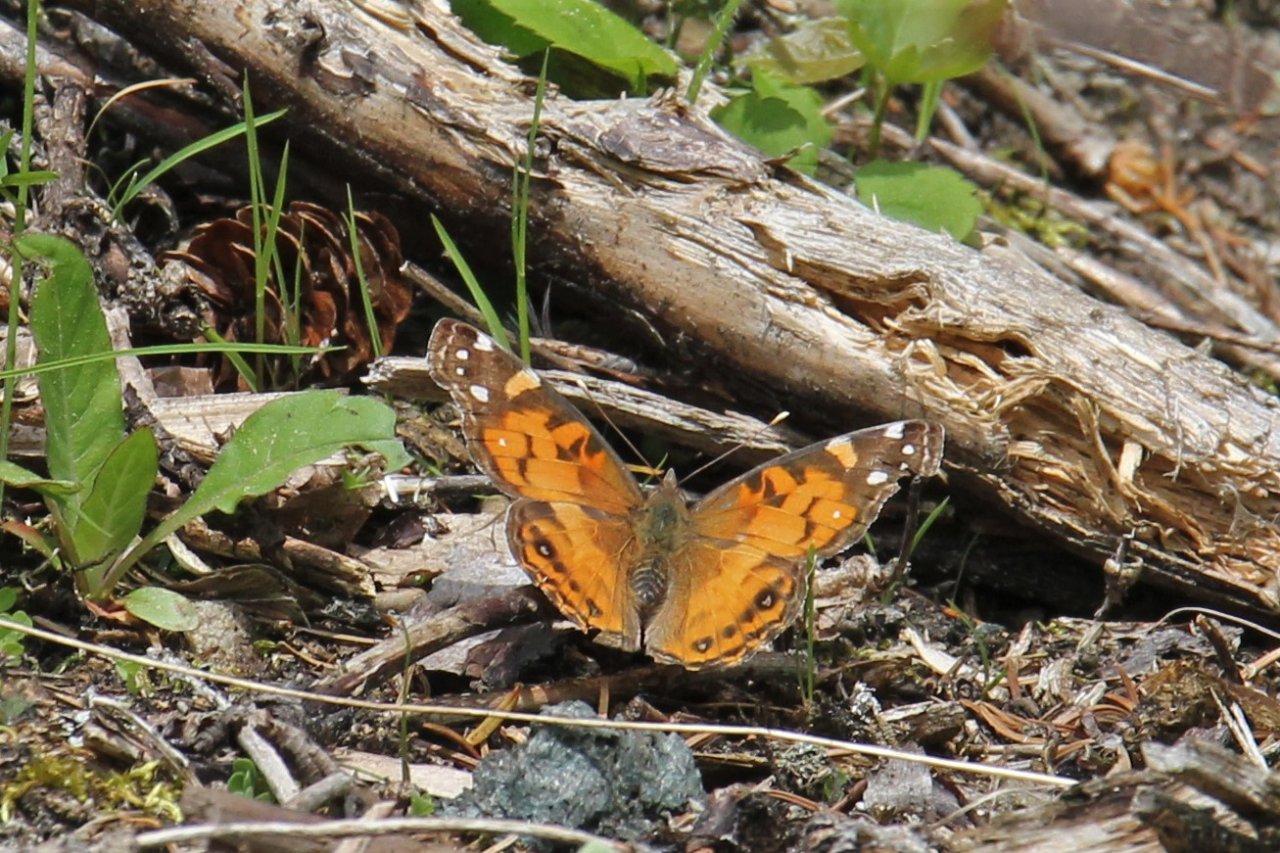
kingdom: Animalia
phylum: Arthropoda
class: Insecta
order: Lepidoptera
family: Nymphalidae
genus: Vanessa
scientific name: Vanessa virginiensis
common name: American Lady
